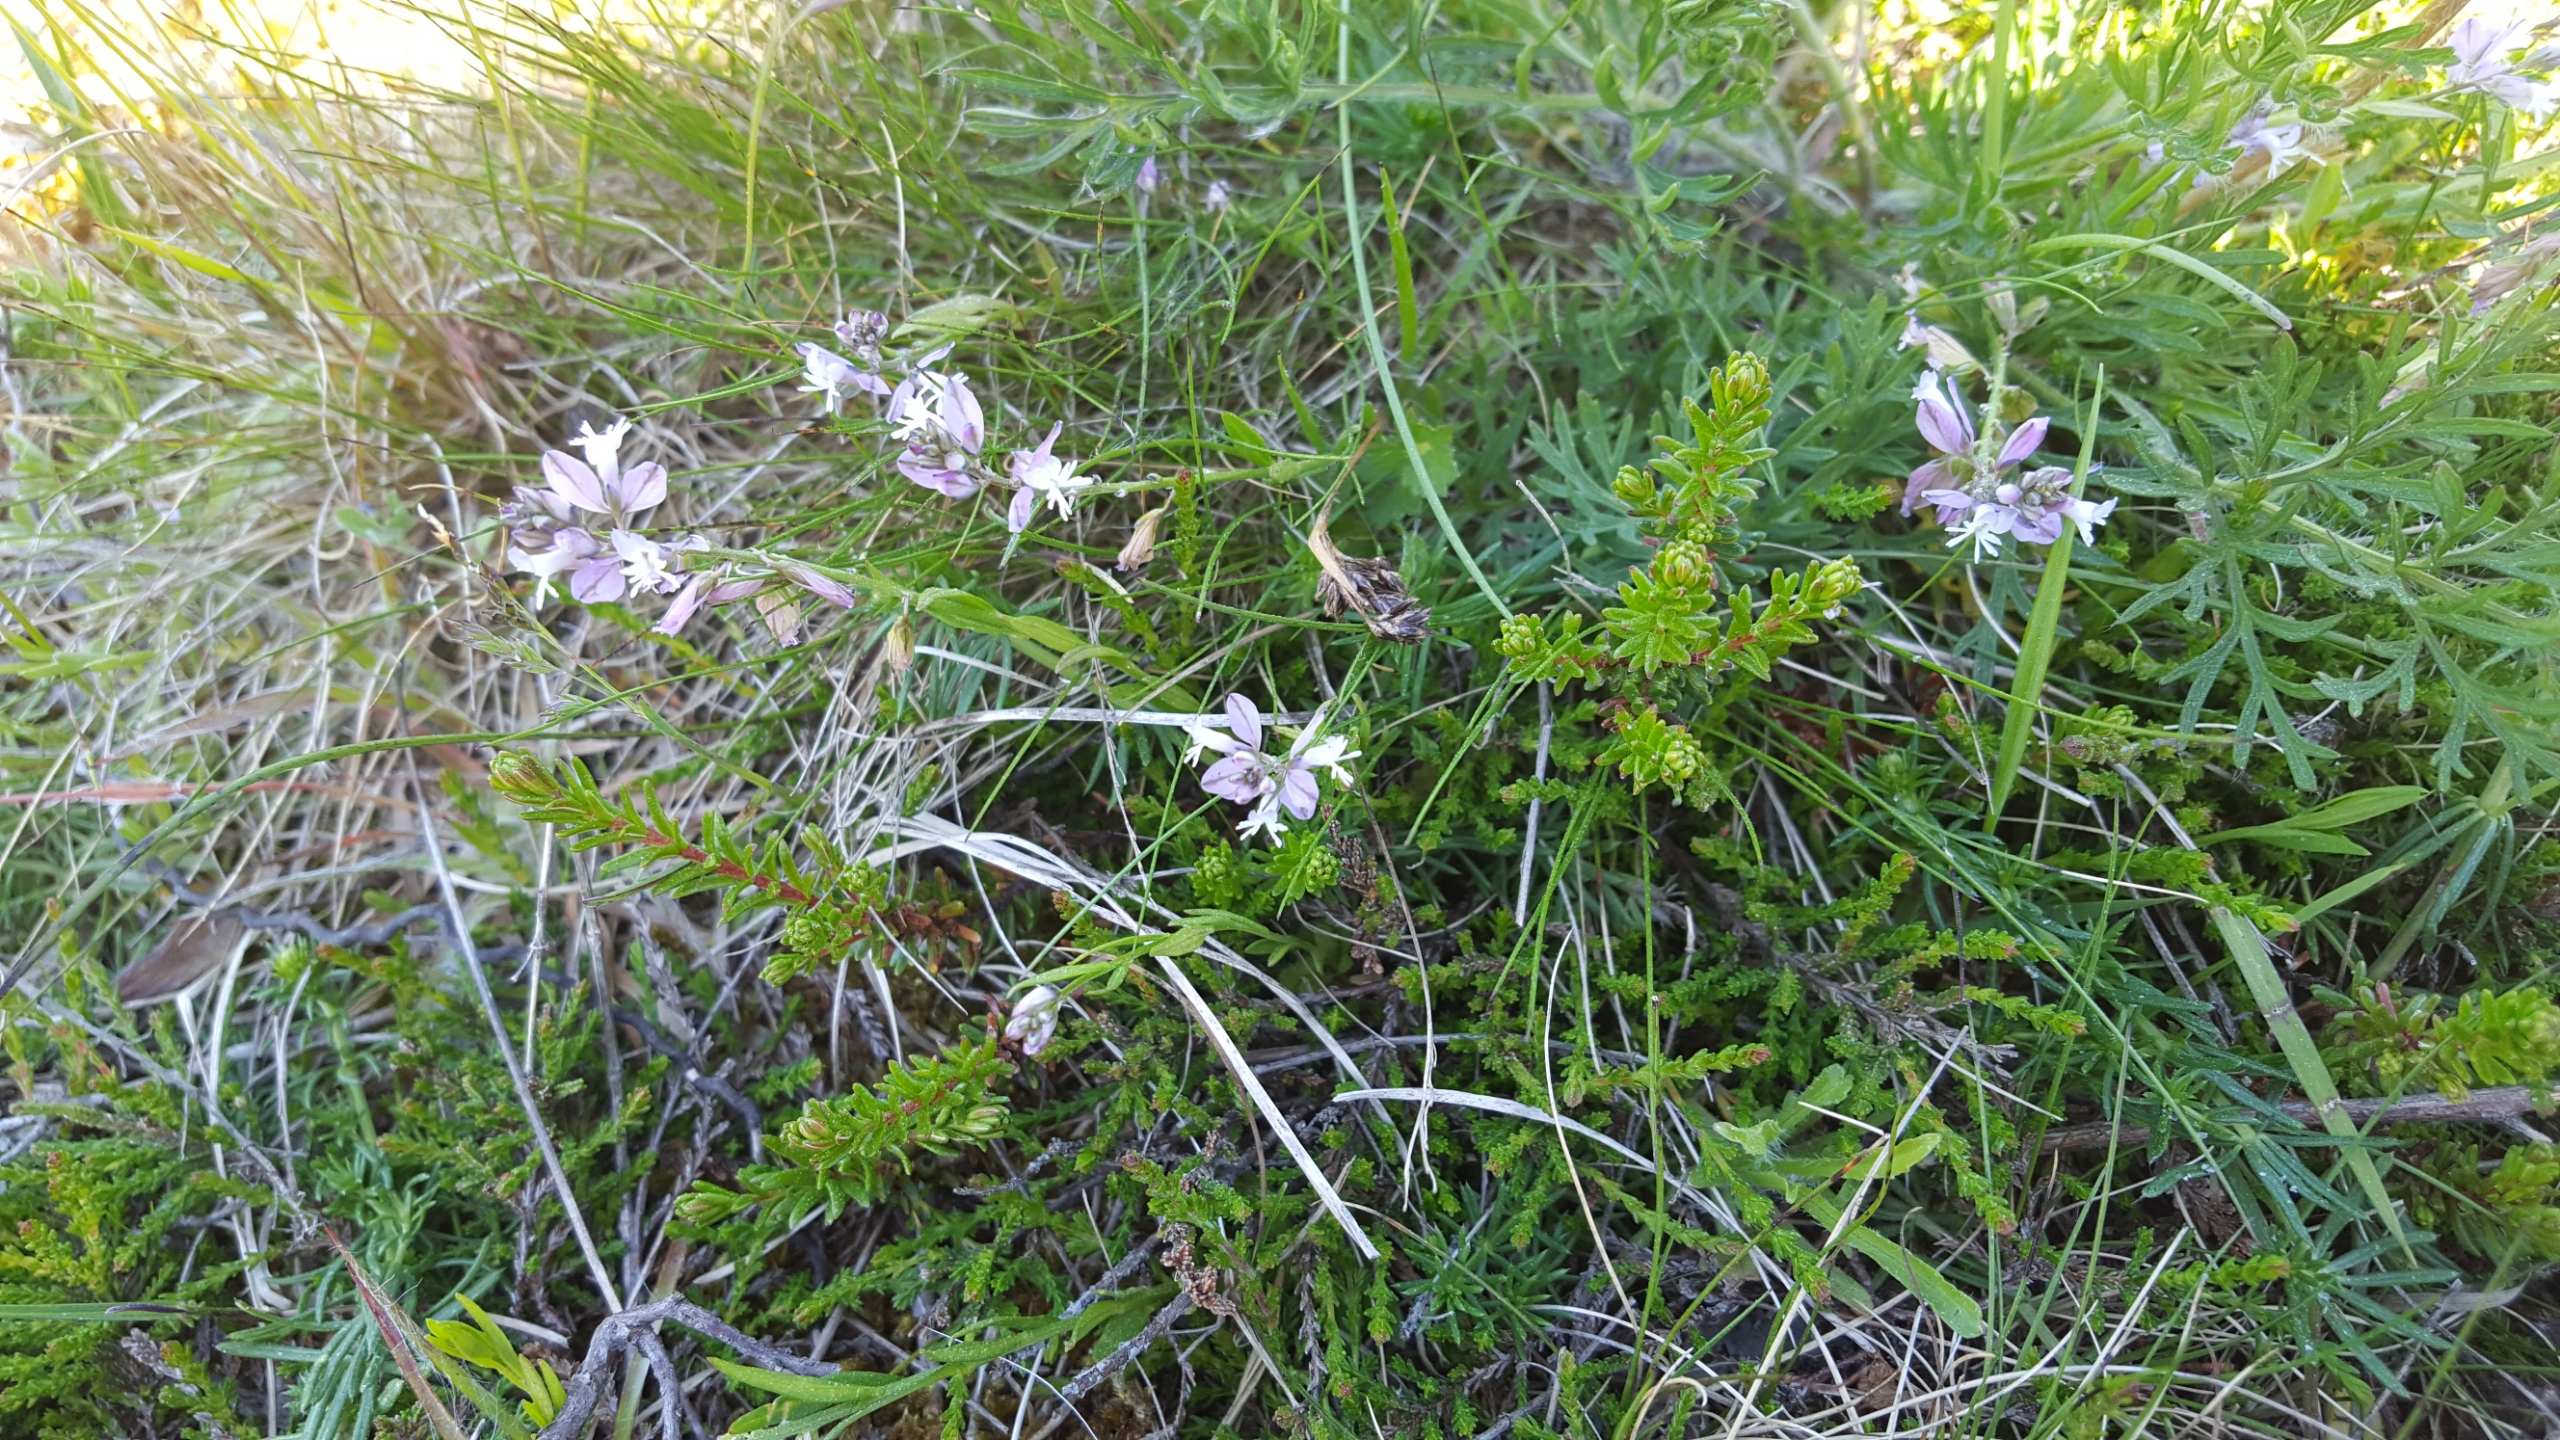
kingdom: Plantae
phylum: Tracheophyta
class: Magnoliopsida
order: Fabales
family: Polygalaceae
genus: Polygala
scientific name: Polygala vulgaris
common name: Almindelig mælkeurt
